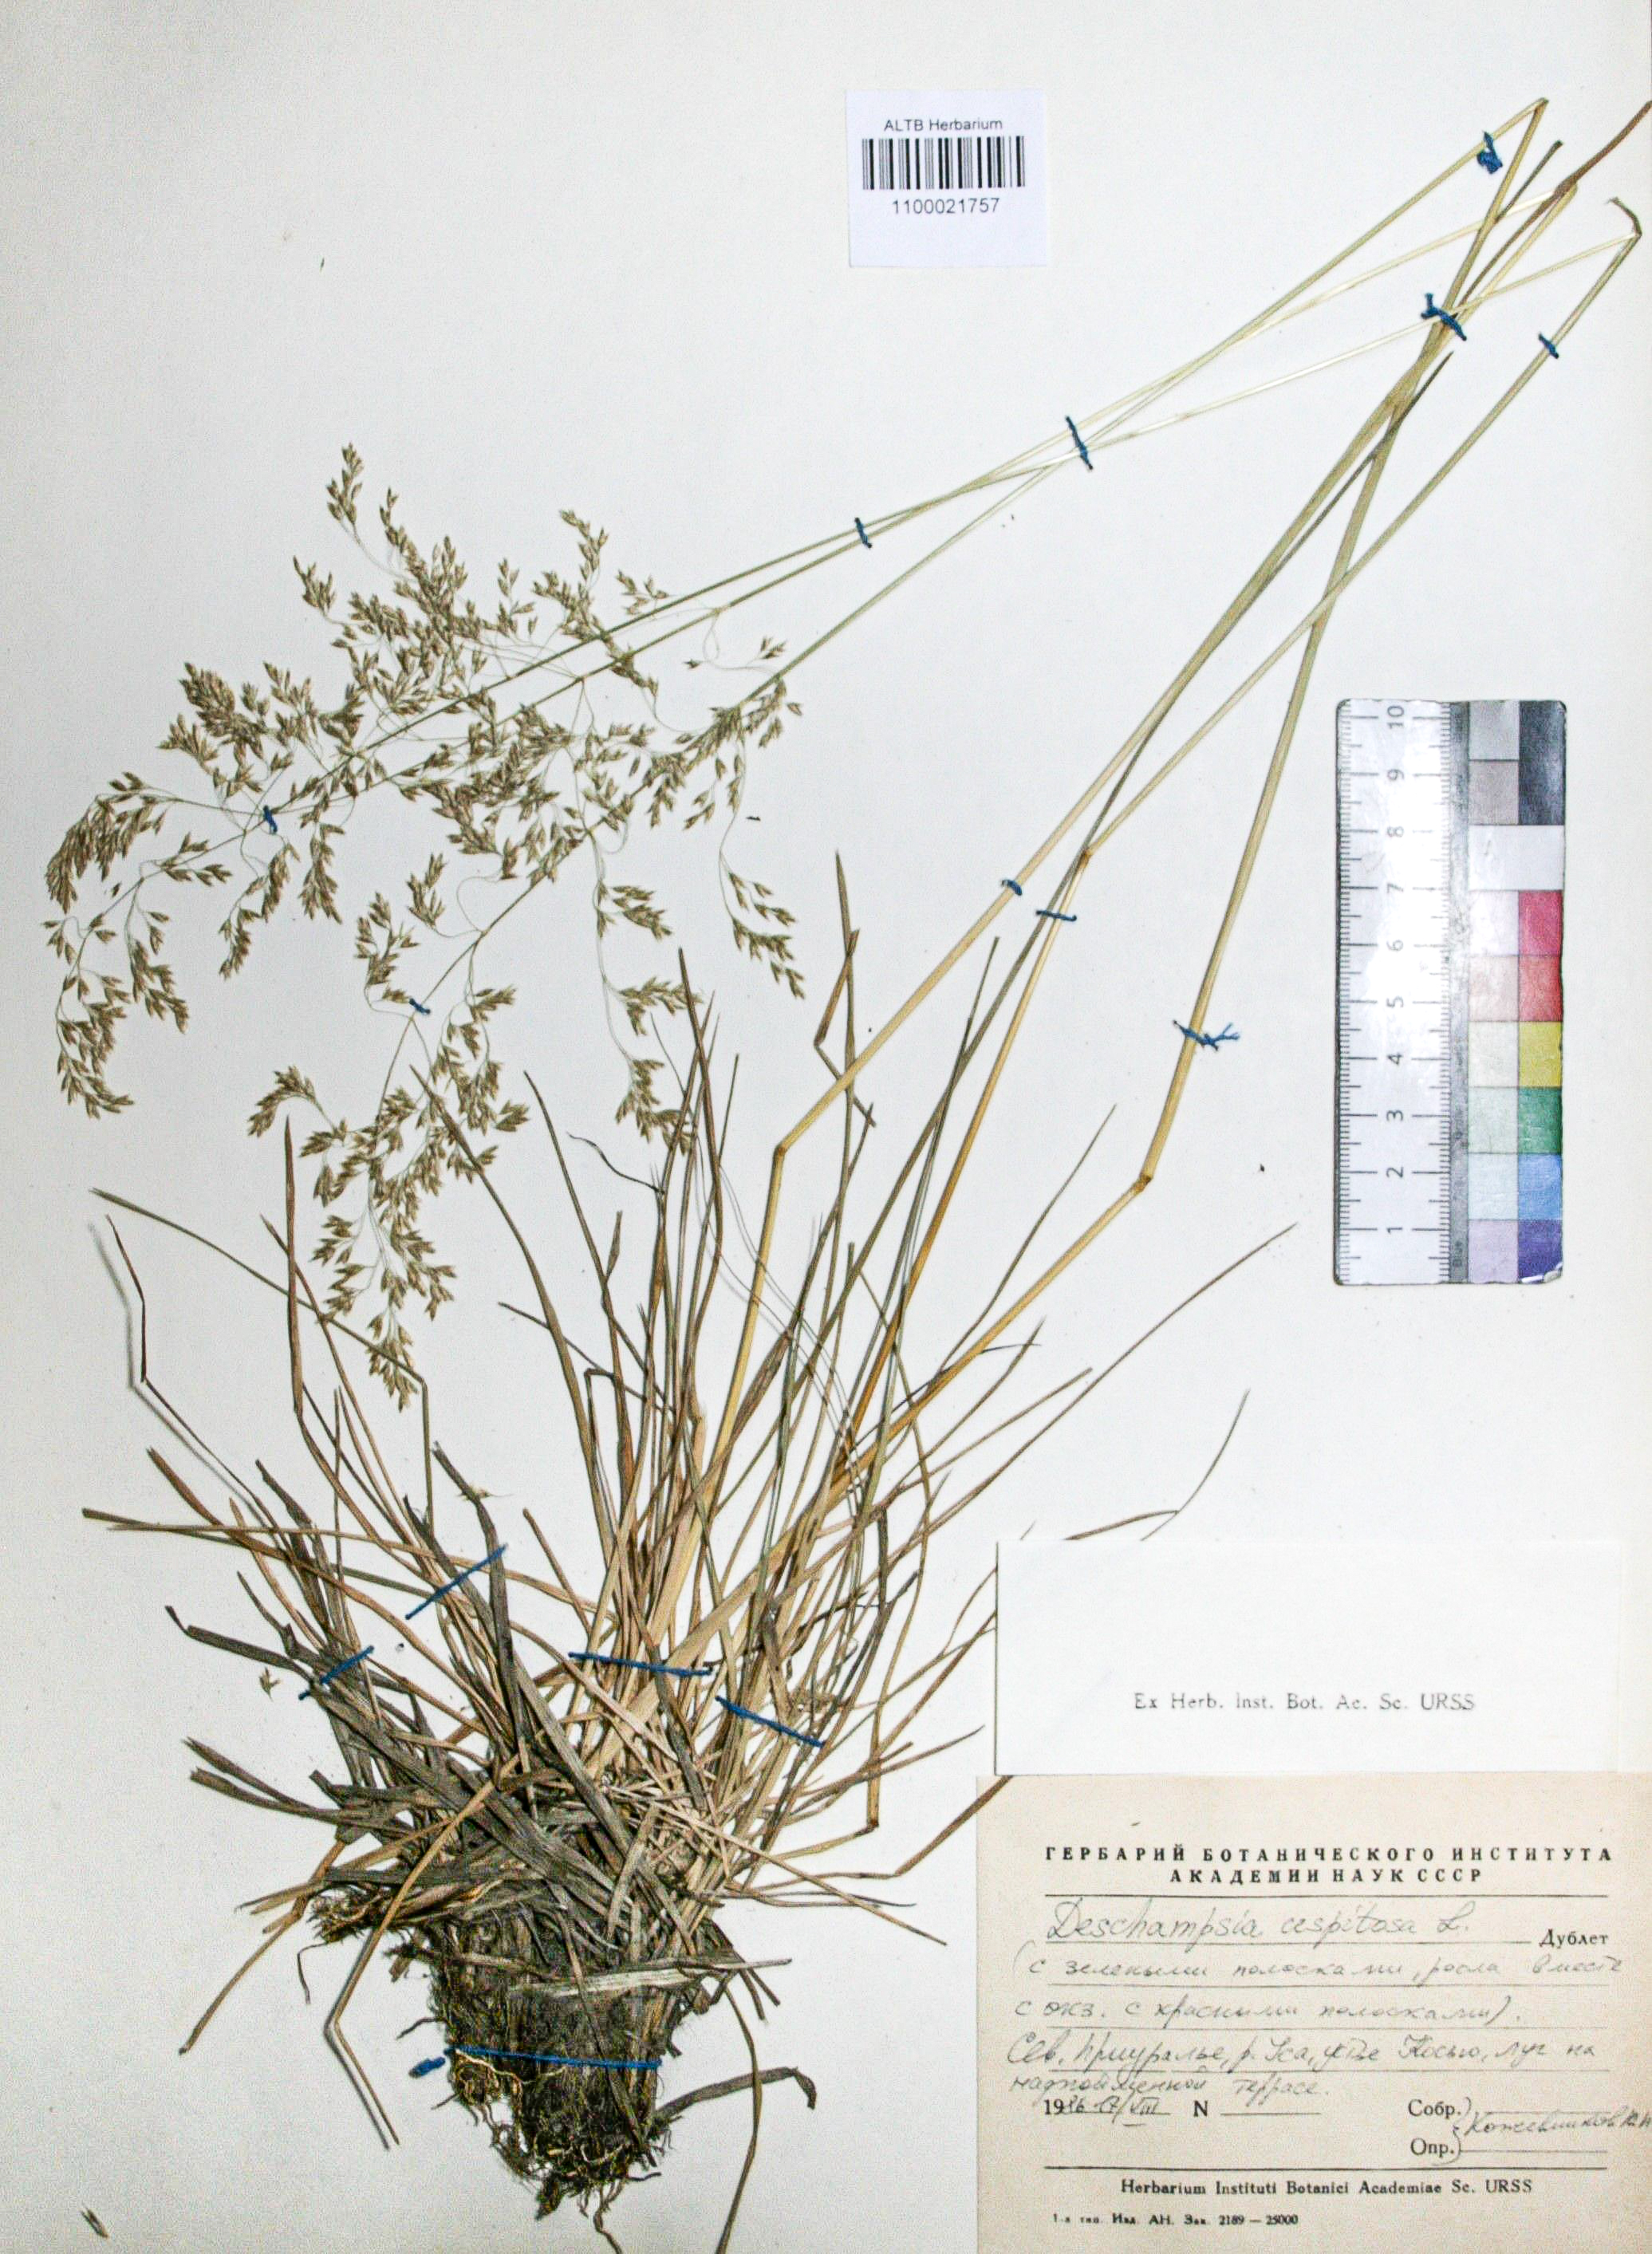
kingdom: Plantae
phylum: Tracheophyta
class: Liliopsida
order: Poales
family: Poaceae
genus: Deschampsia
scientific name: Deschampsia cespitosa
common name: Tufted hair-grass
